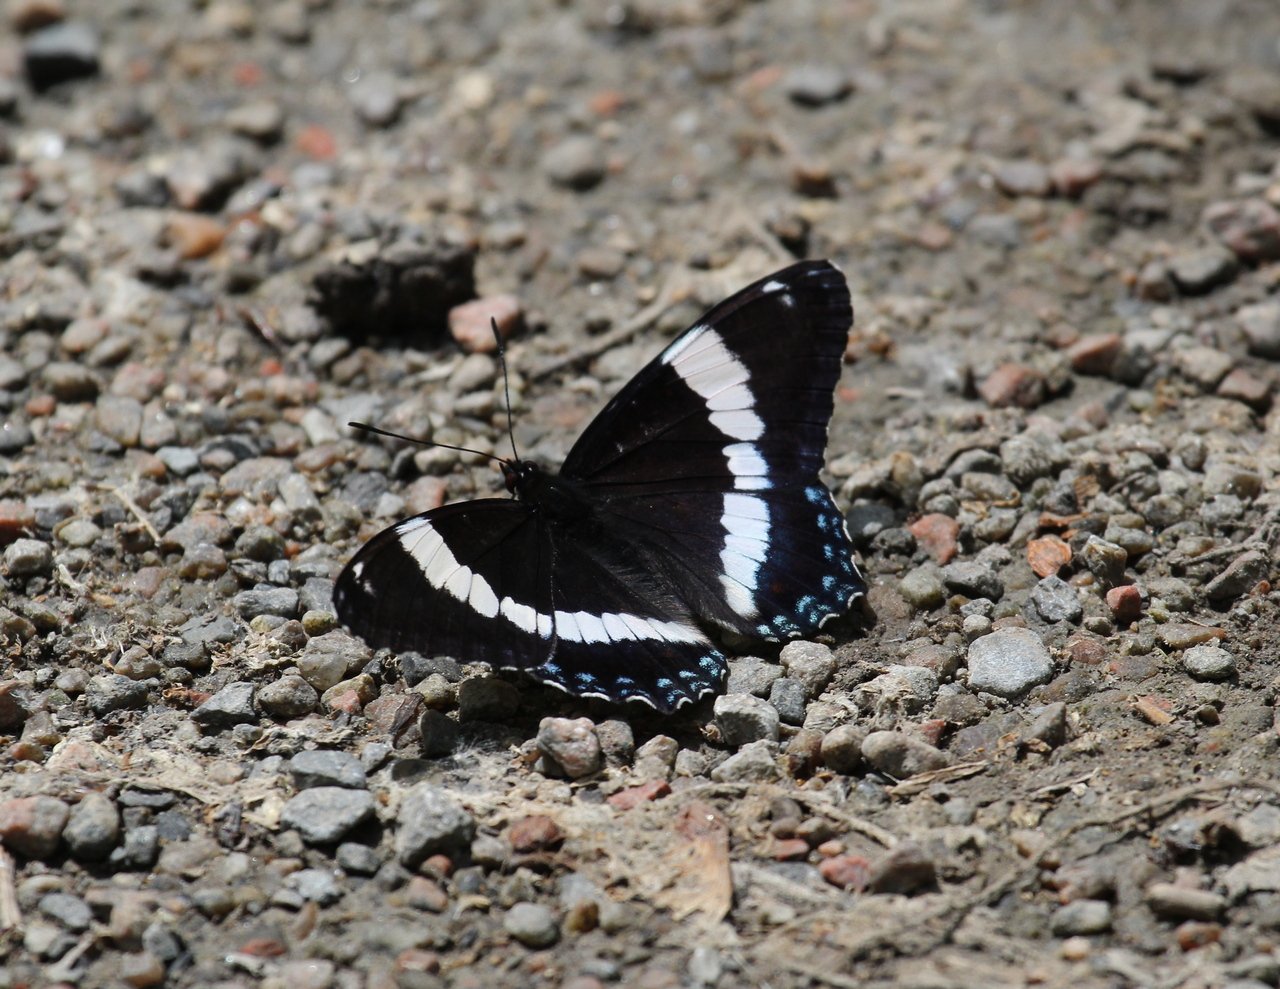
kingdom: Animalia
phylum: Arthropoda
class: Insecta
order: Lepidoptera
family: Nymphalidae
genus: Limenitis
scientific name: Limenitis arthemis
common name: Red-spotted Admiral
